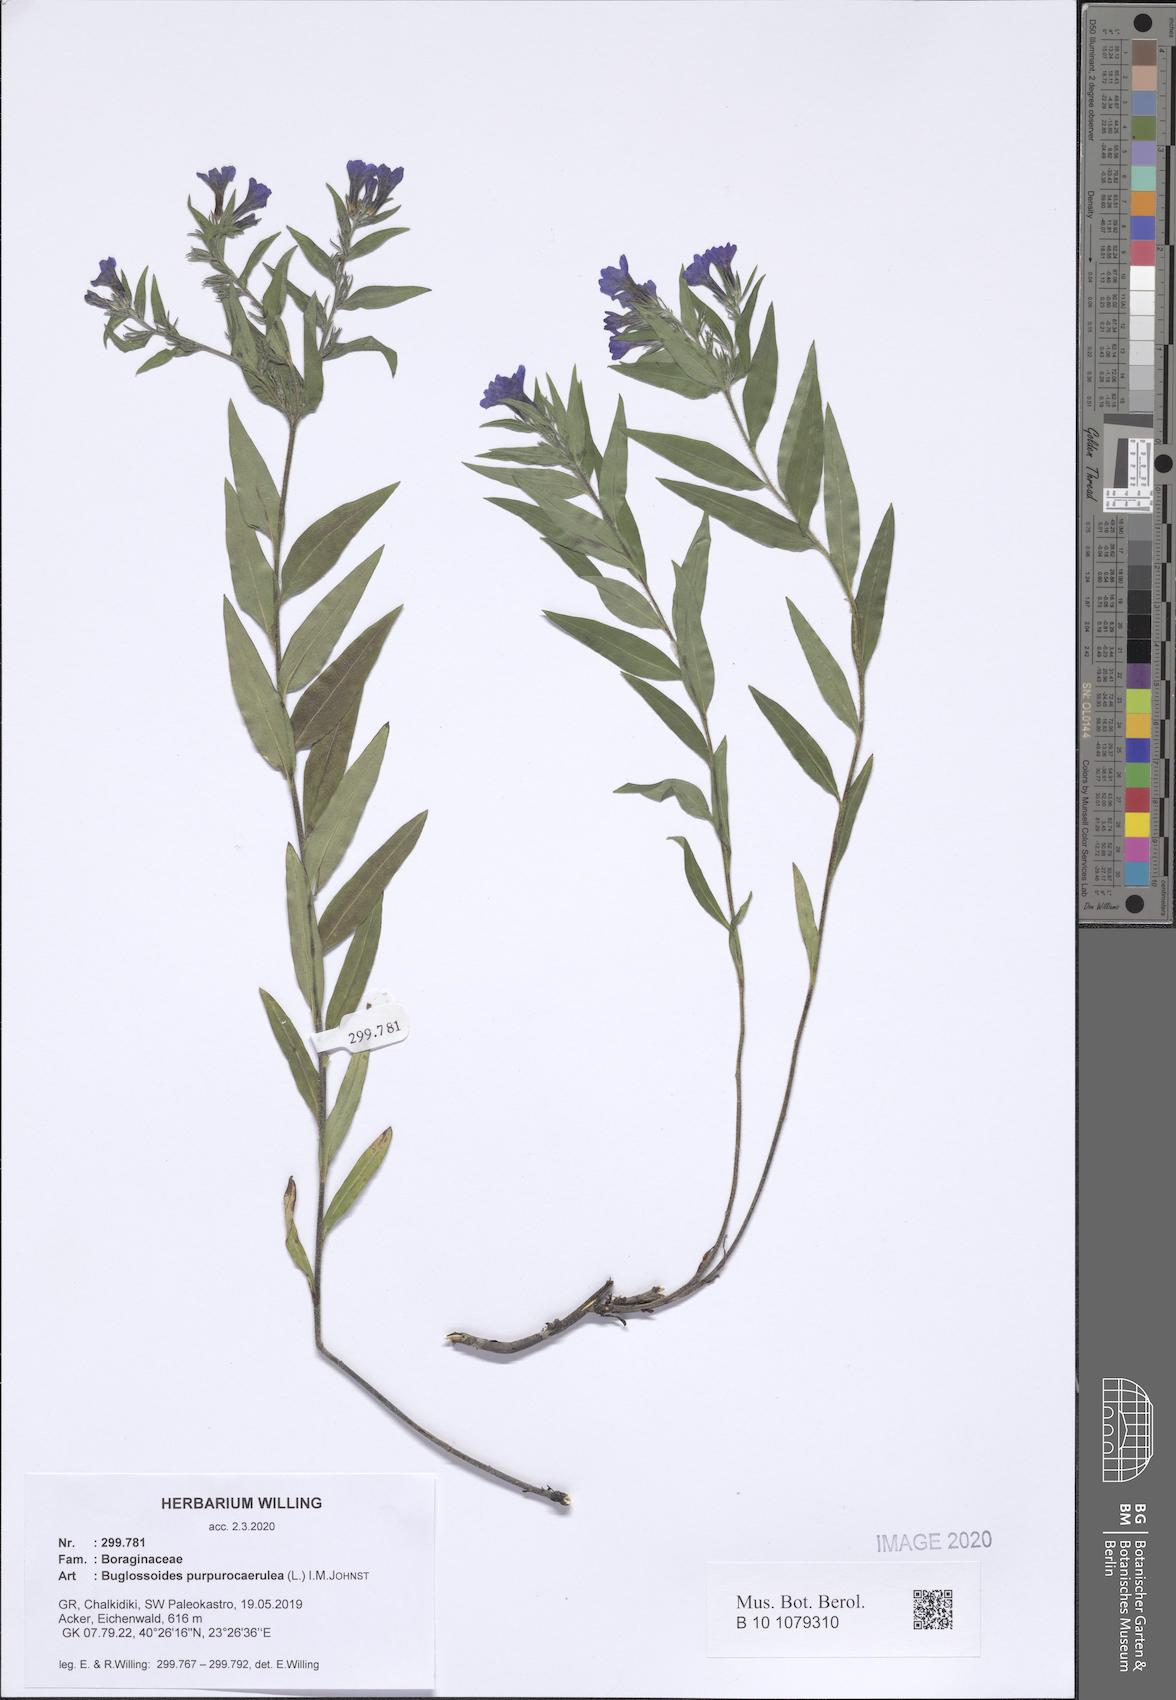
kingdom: Plantae
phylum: Tracheophyta
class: Magnoliopsida
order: Boraginales
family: Boraginaceae
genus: Aegonychon
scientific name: Aegonychon purpurocaeruleum
